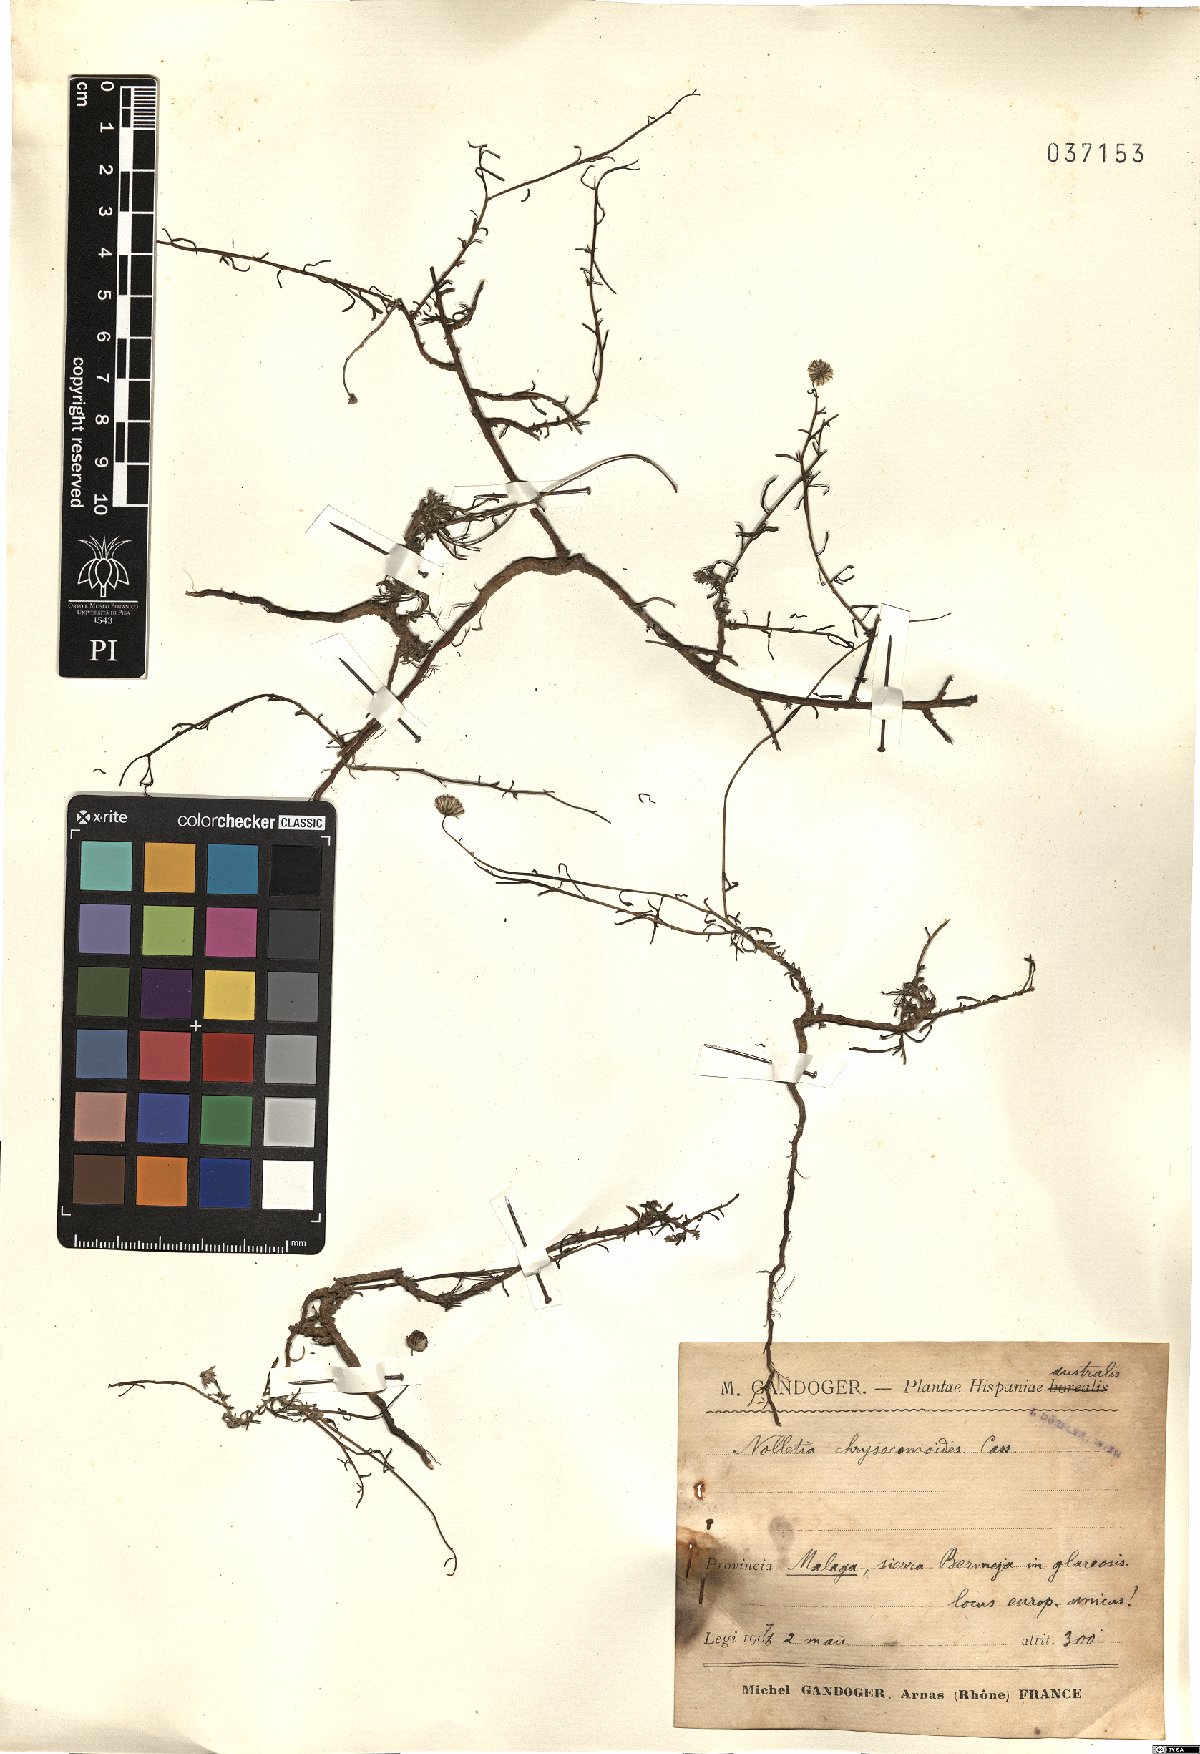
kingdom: Plantae
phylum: Tracheophyta
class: Magnoliopsida
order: Asterales
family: Asteraceae
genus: Nolletia
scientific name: Nolletia chrysocomoides
